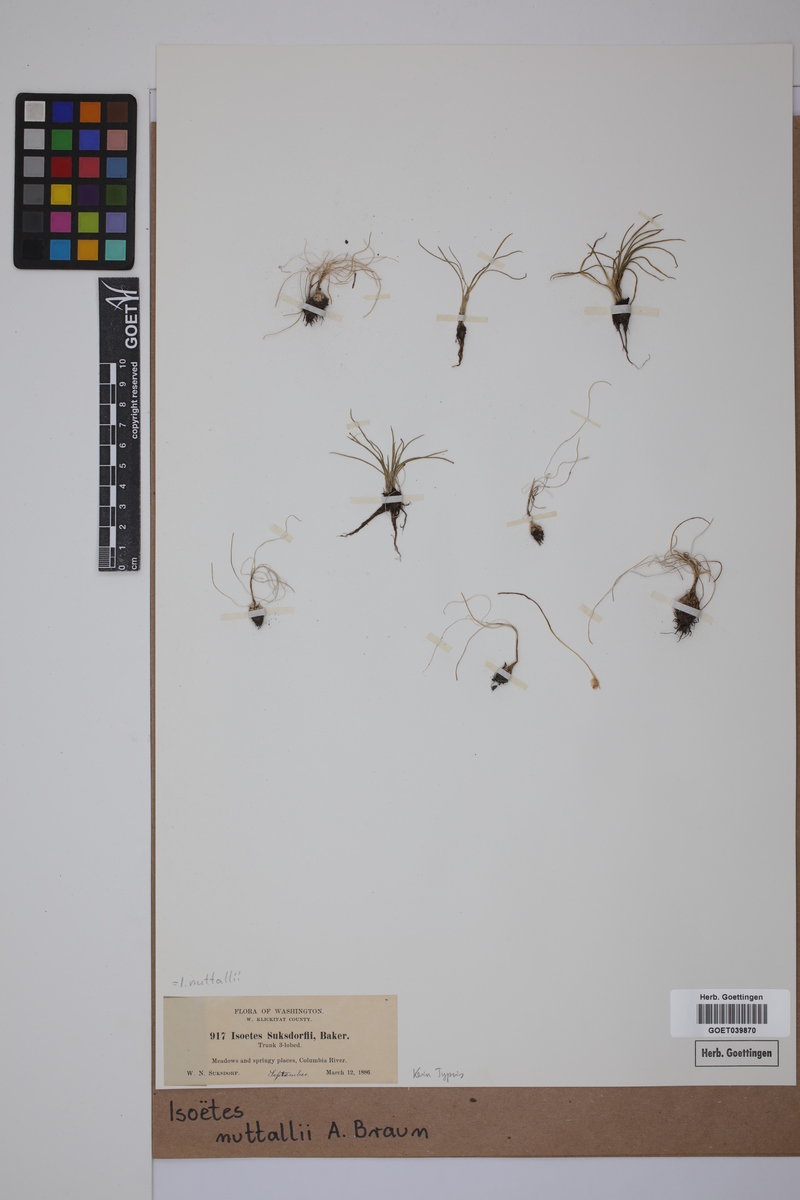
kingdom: Plantae
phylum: Tracheophyta
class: Lycopodiopsida
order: Isoetales
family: Isoetaceae
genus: Isoetes
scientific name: Isoetes nuttallii
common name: Nuttall's quillwort
